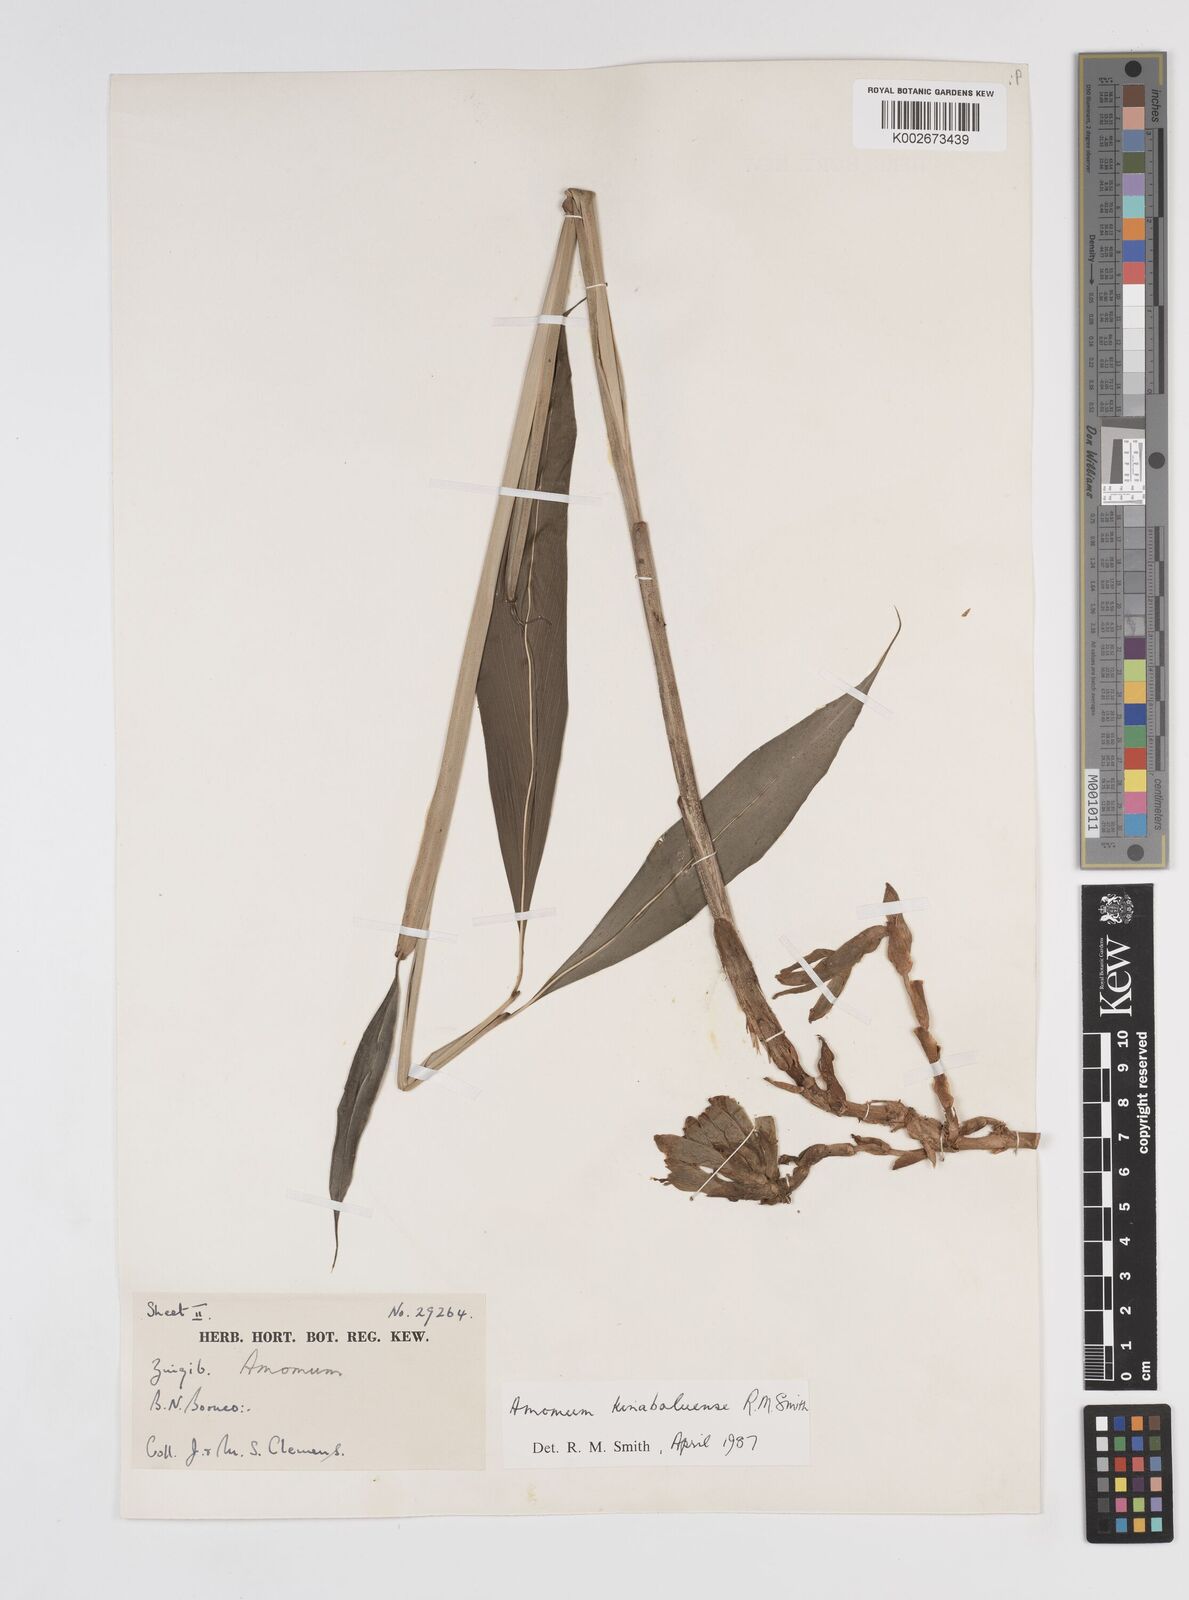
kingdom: Plantae
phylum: Tracheophyta
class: Liliopsida
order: Zingiberales
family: Zingiberaceae
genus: Meistera
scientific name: Meistera kinabaluensis
